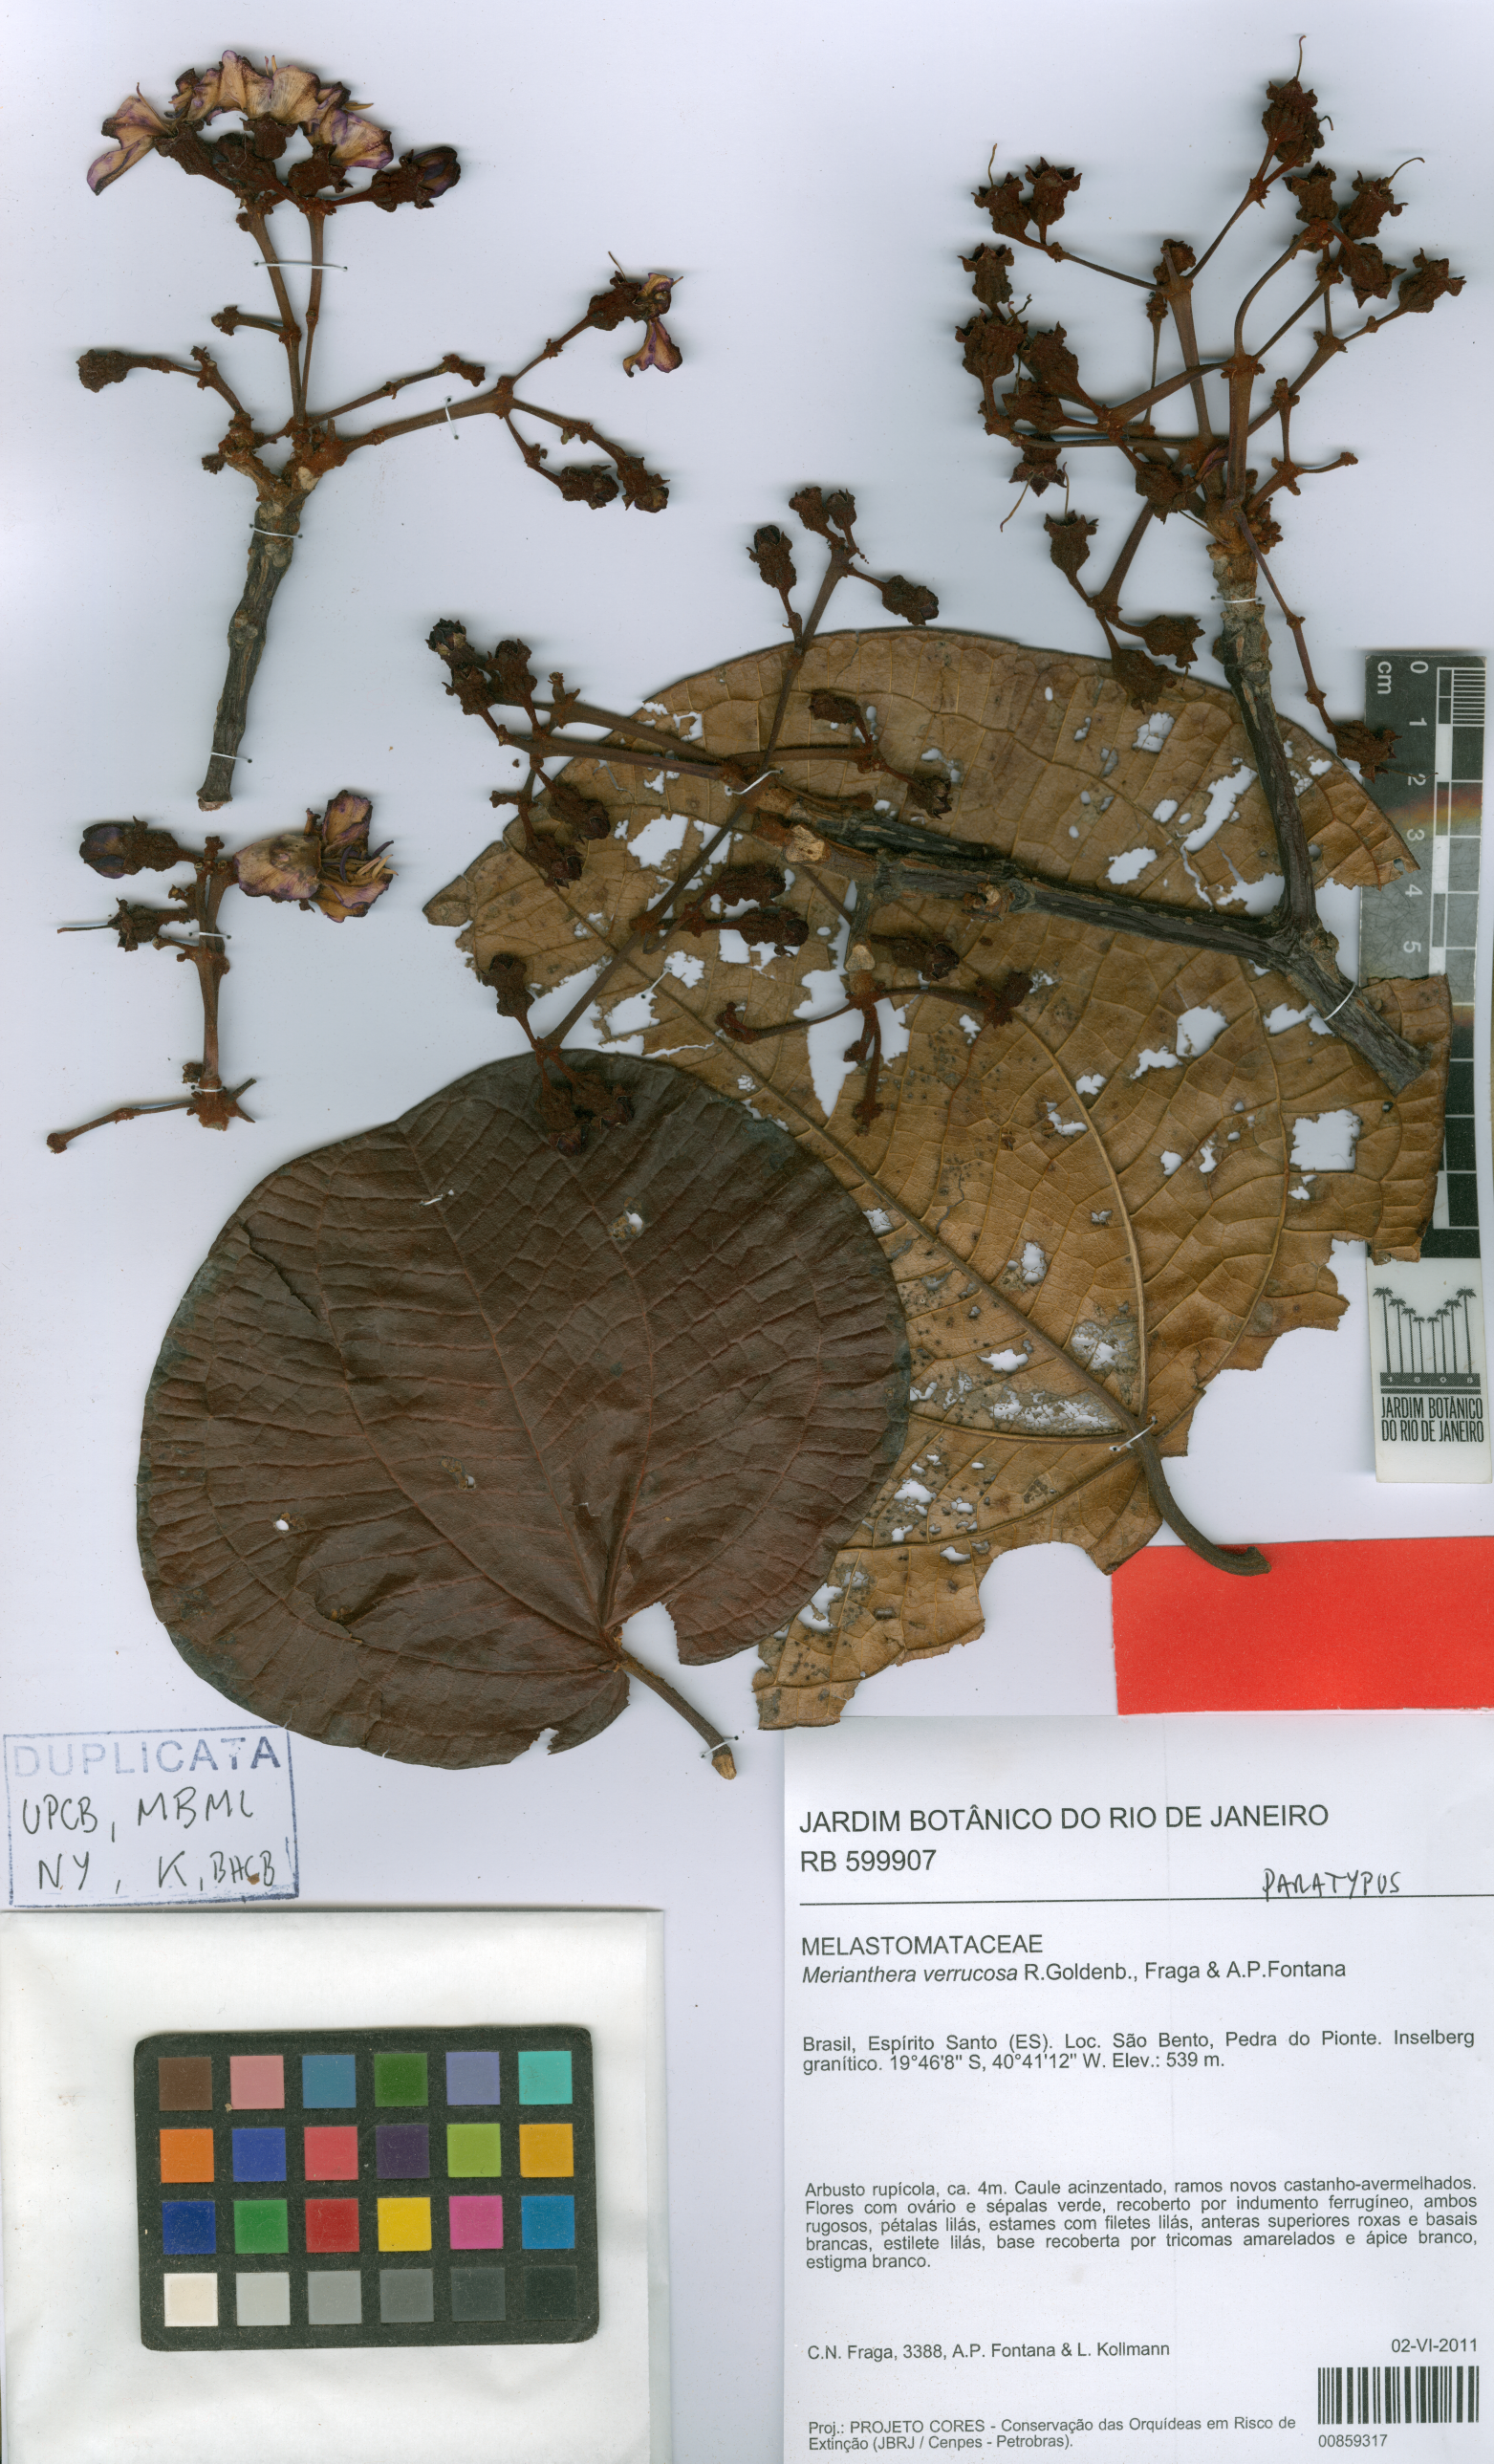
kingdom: Plantae
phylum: Tracheophyta
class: Magnoliopsida
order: Myrtales
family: Melastomataceae
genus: Merianthera
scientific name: Merianthera verrucosa
